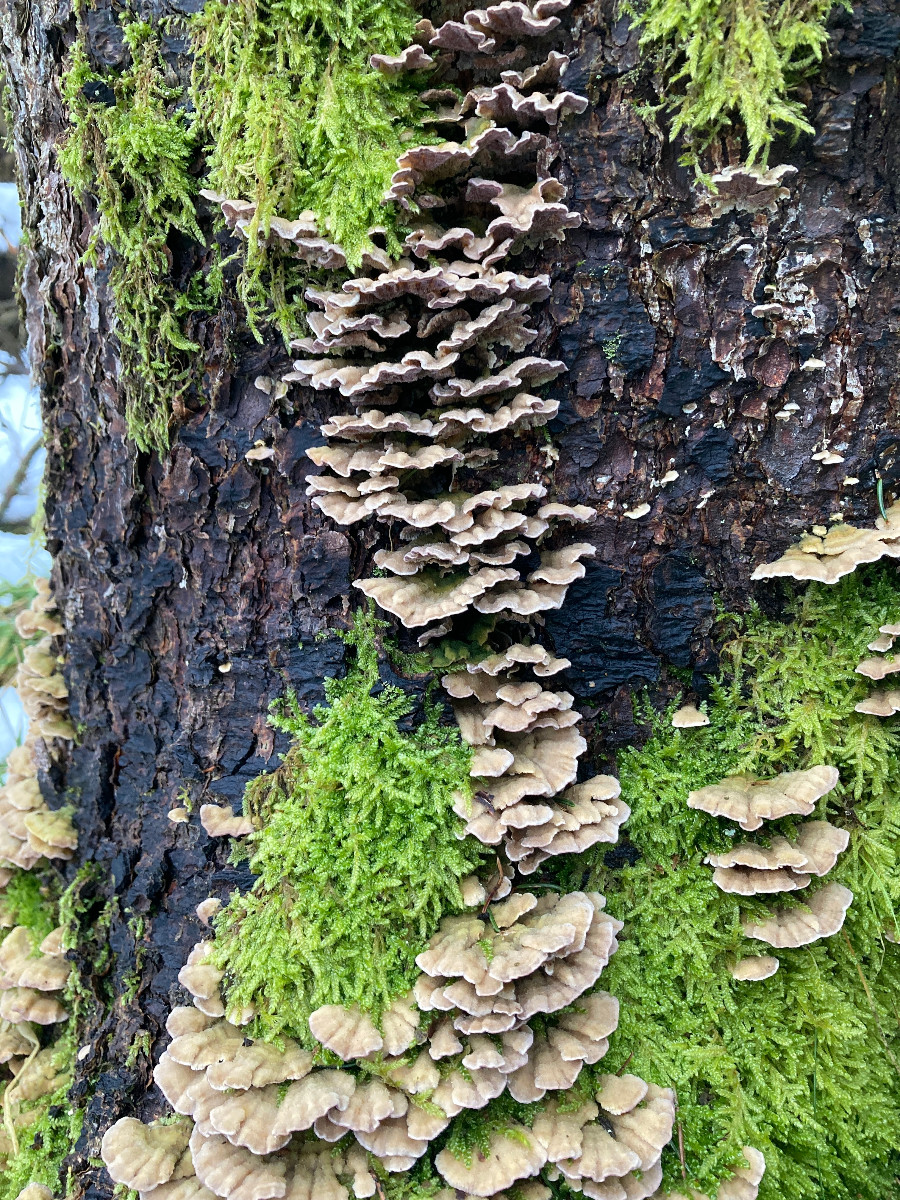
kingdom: Fungi
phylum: Basidiomycota
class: Agaricomycetes
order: Hymenochaetales
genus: Trichaptum
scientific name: Trichaptum abietinum
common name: almindelig violporesvamp
